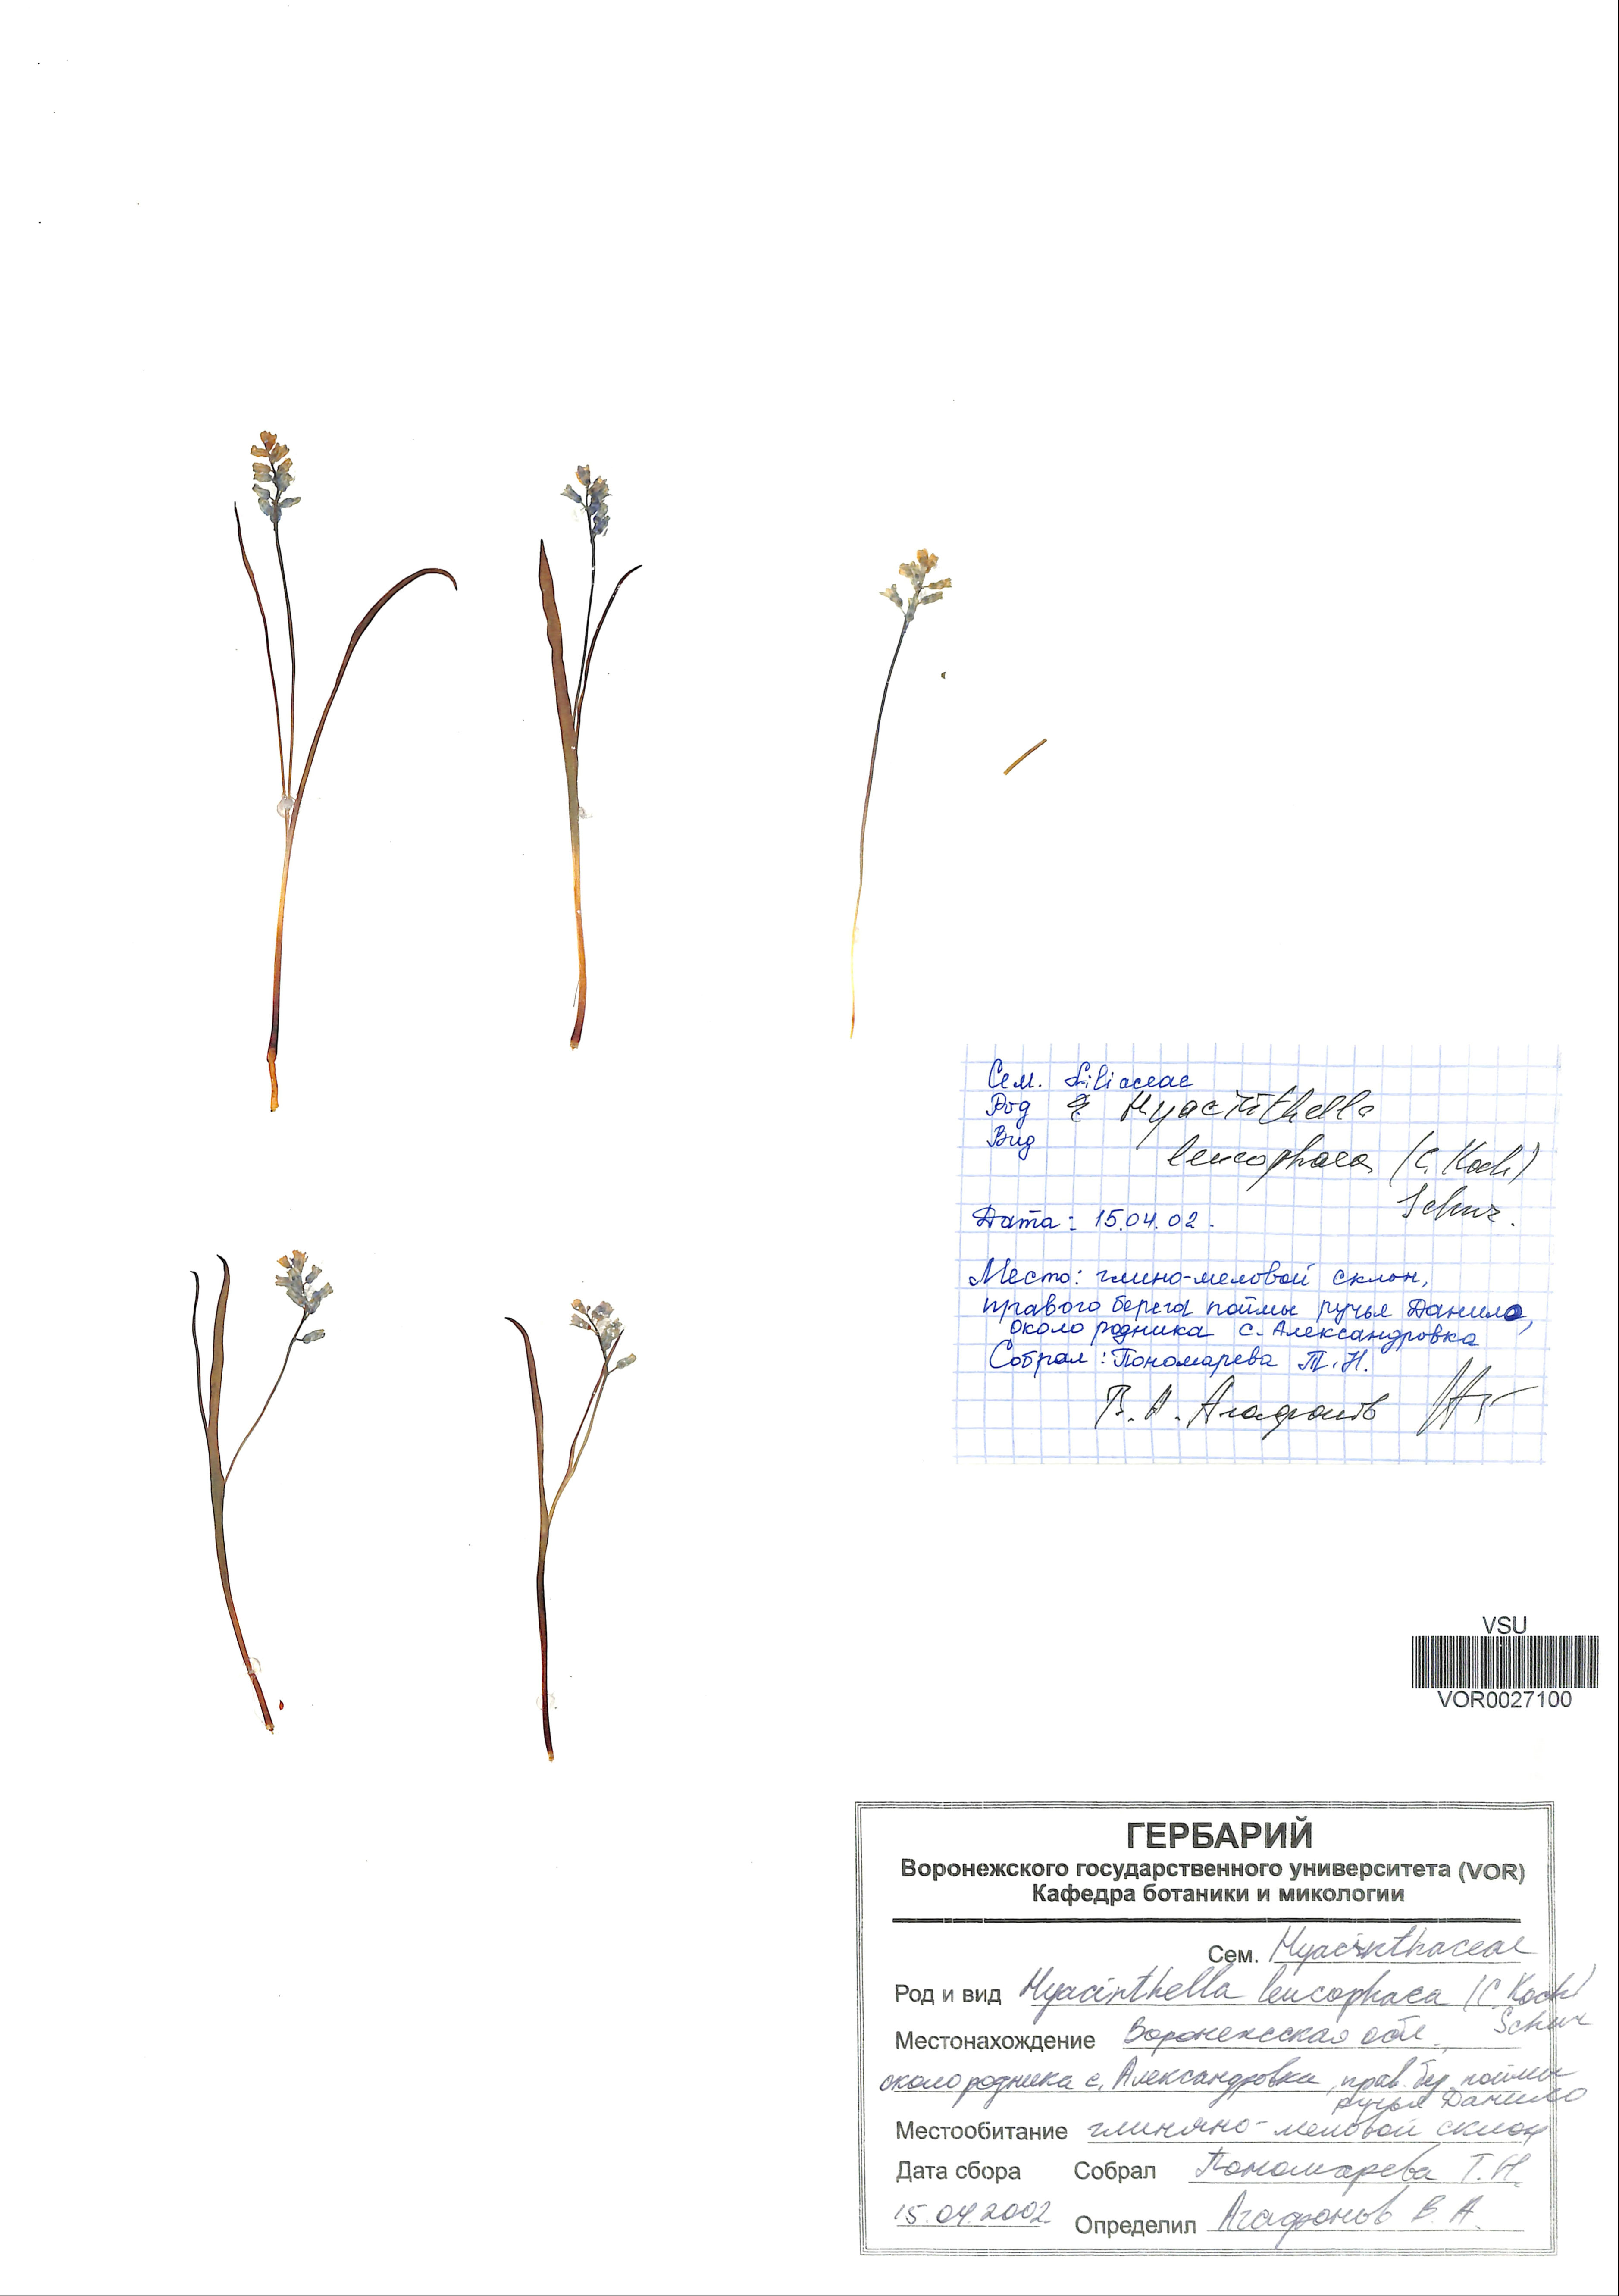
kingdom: Plantae
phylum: Tracheophyta
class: Liliopsida
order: Asparagales
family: Asparagaceae
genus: Hyacinthella
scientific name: Hyacinthella leucophaea
